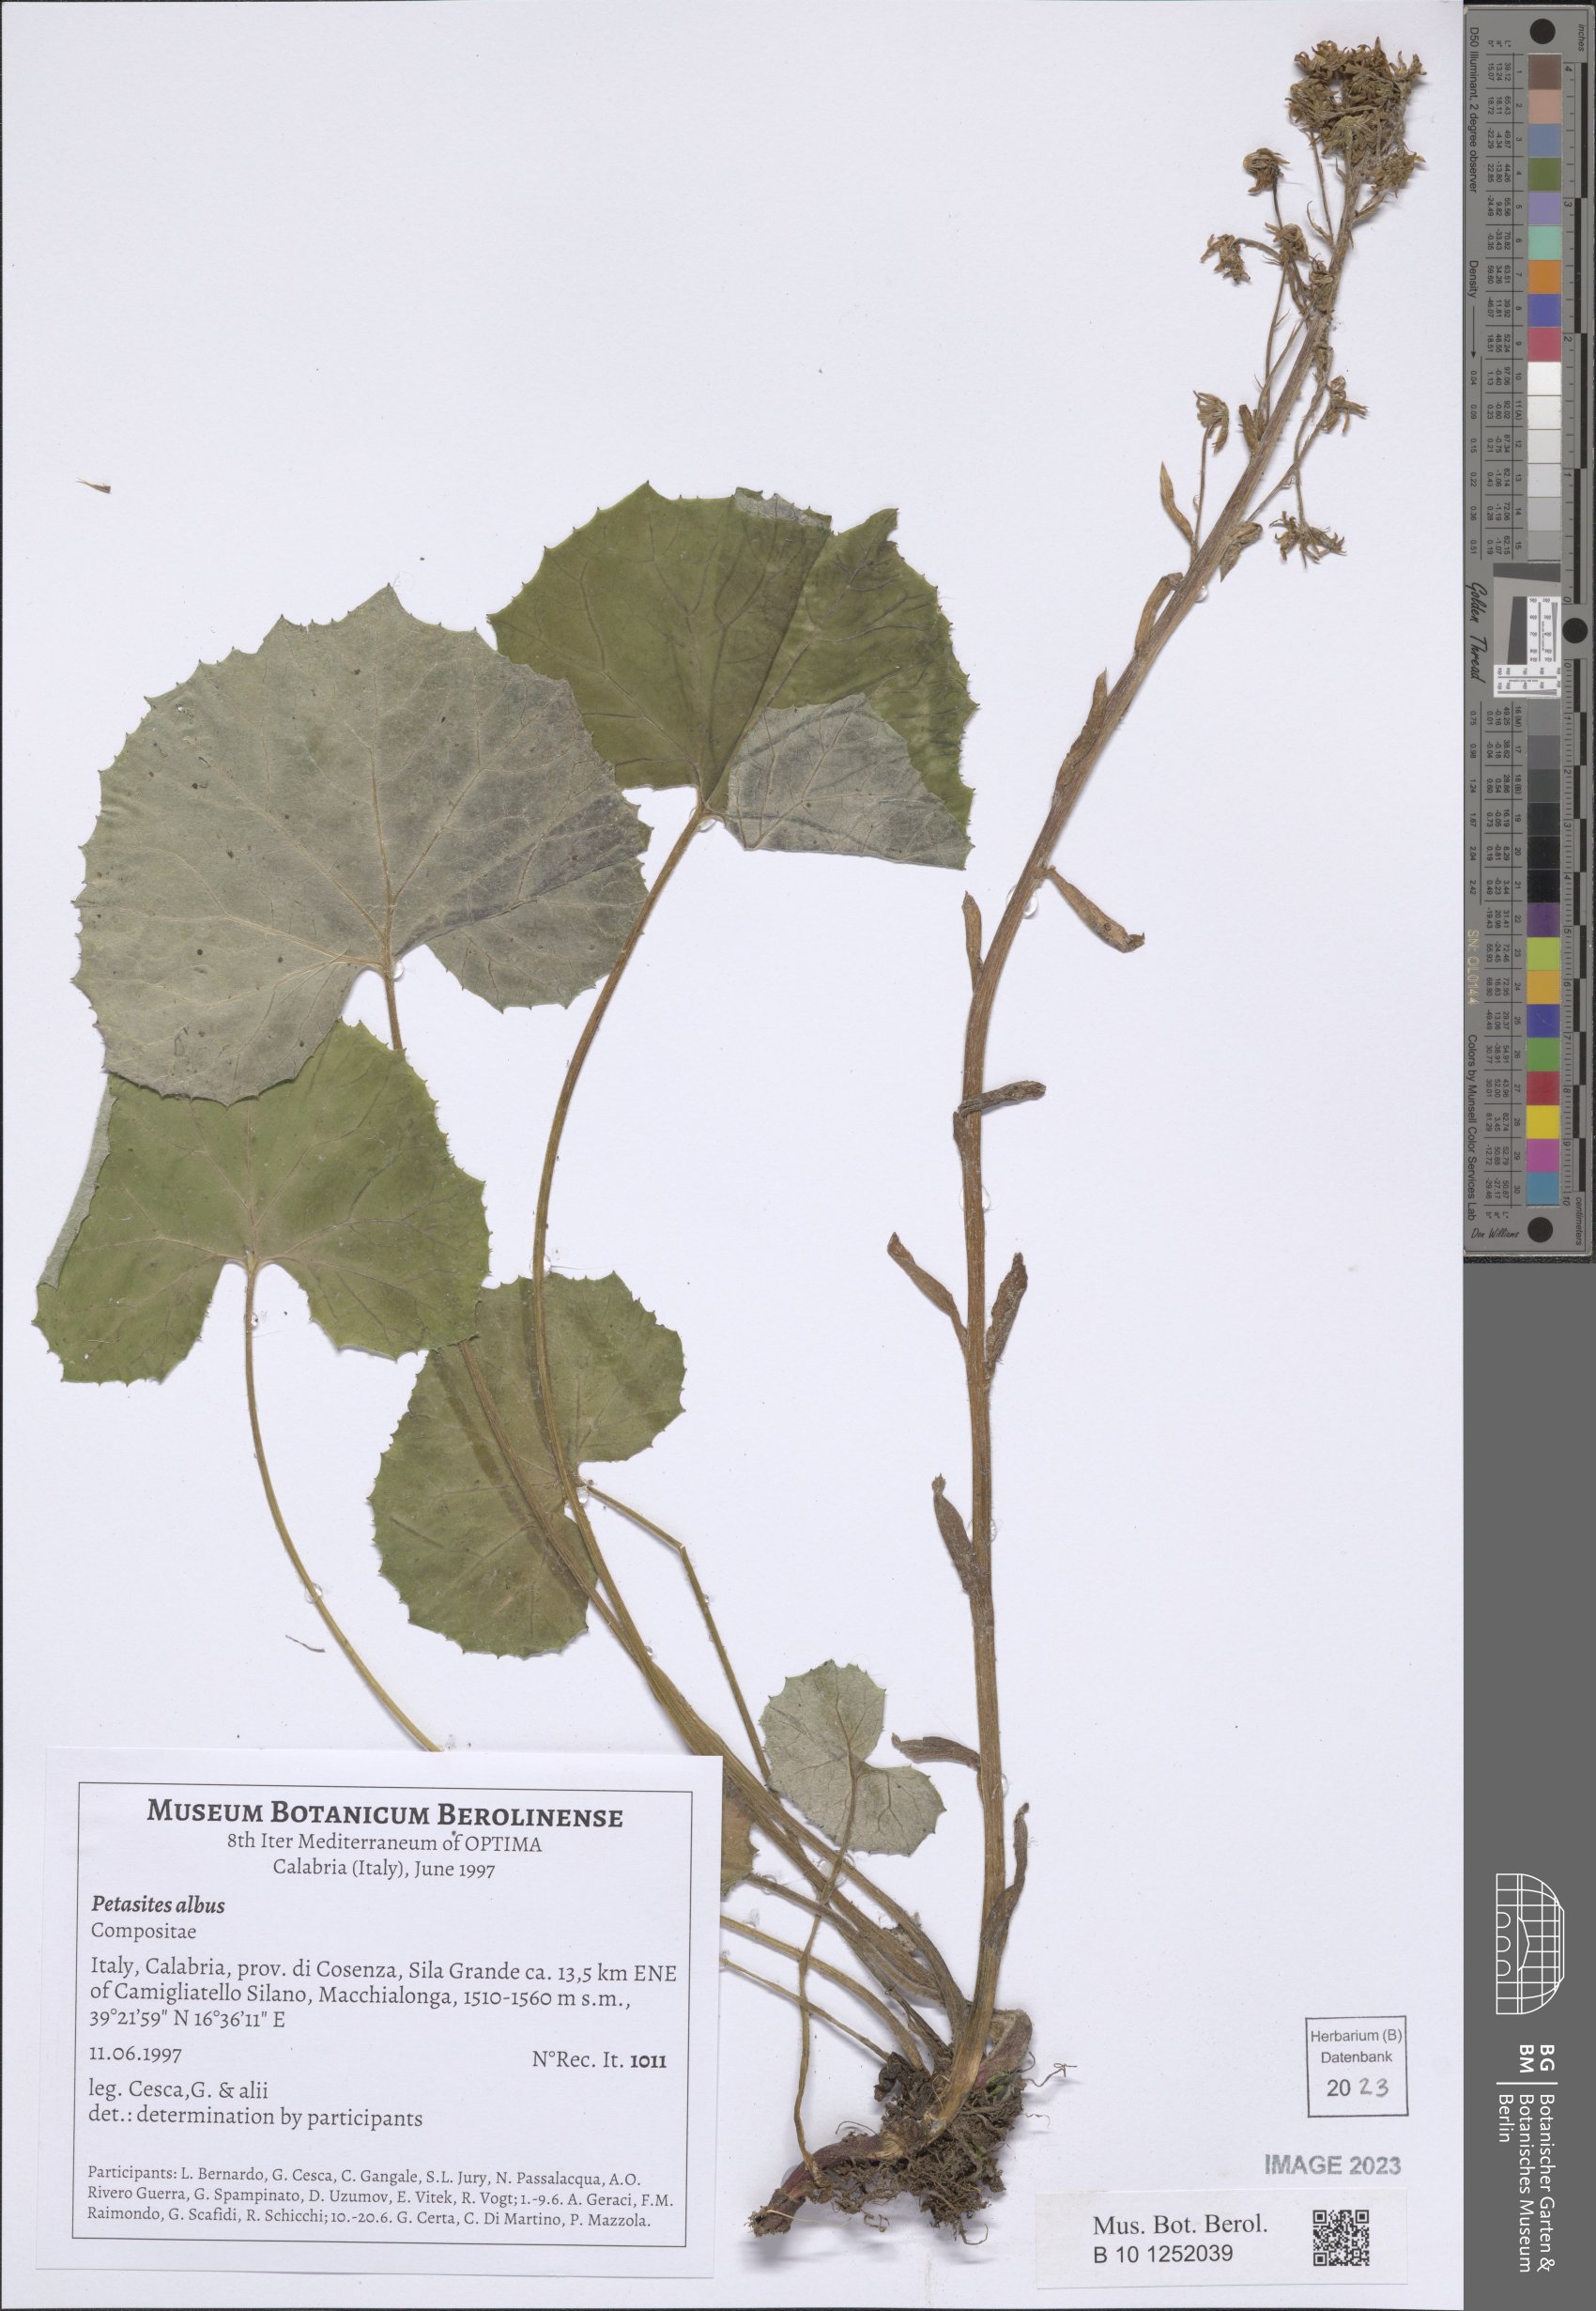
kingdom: Plantae
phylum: Tracheophyta
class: Magnoliopsida
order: Asterales
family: Asteraceae
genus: Petasites
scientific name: Petasites albus
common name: White butterbur
